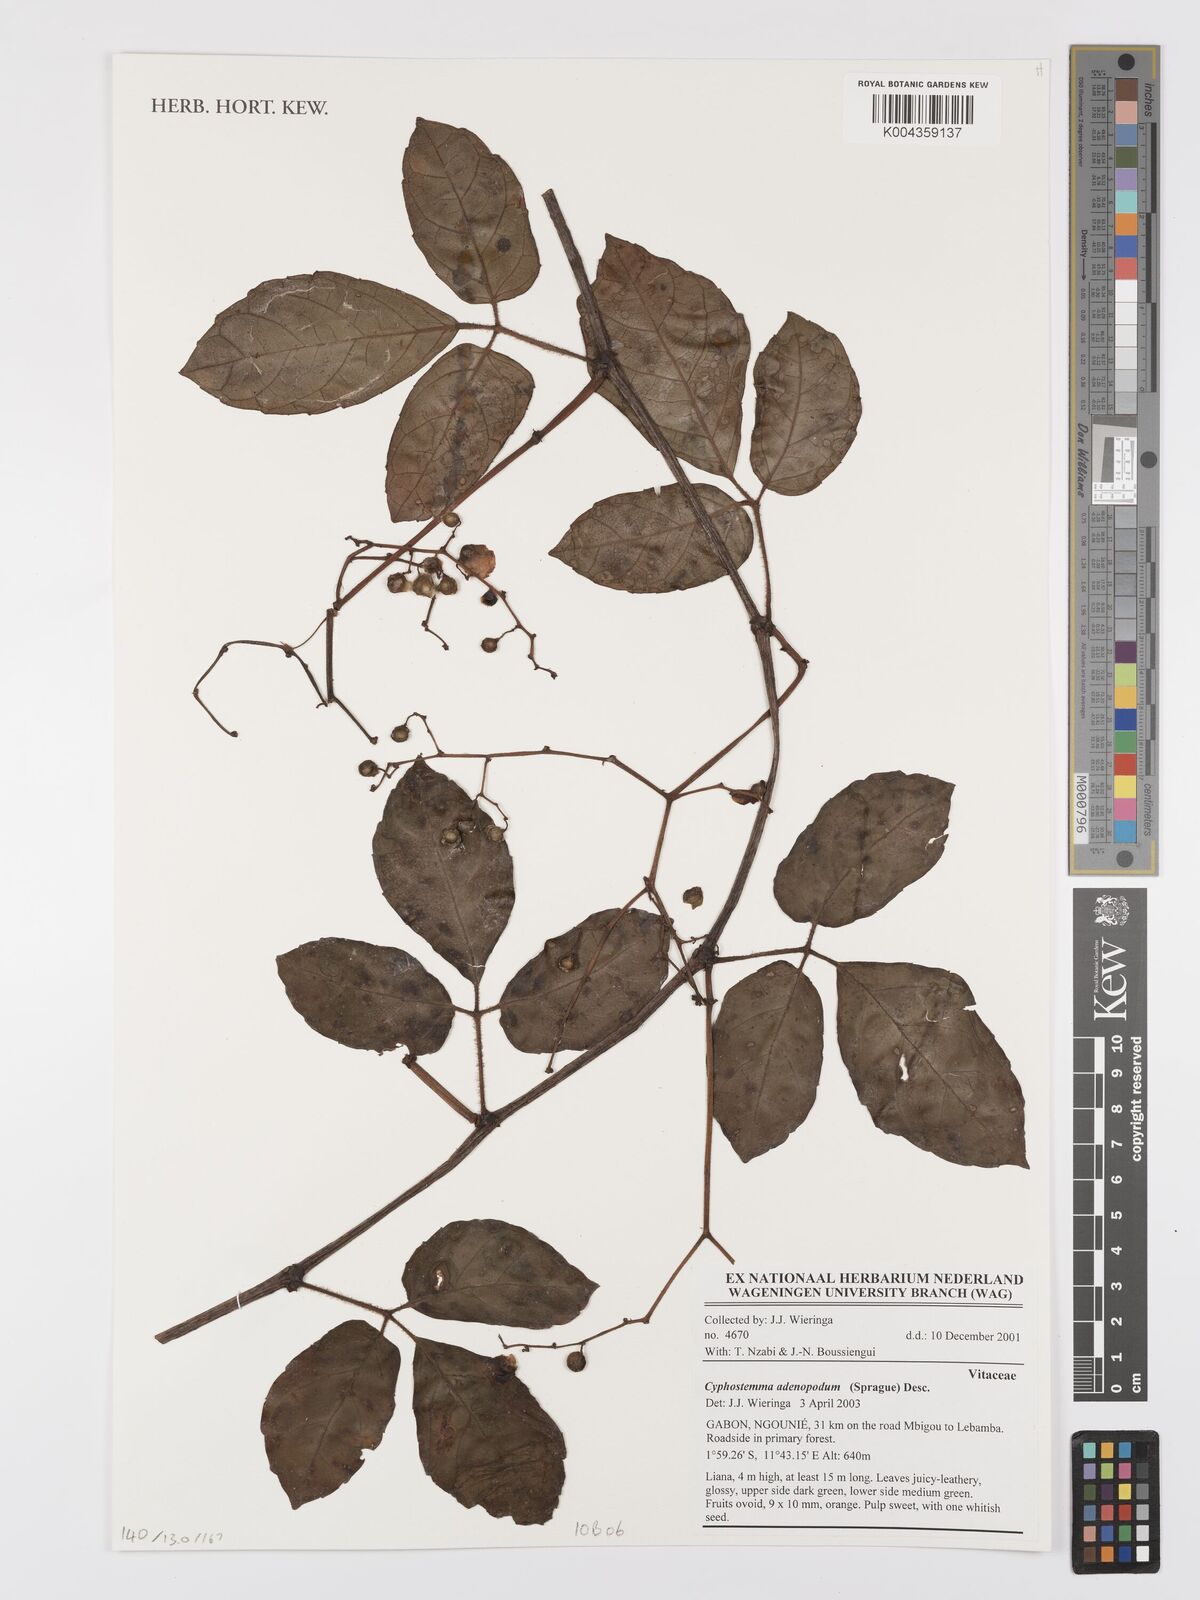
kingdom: Plantae
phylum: Tracheophyta
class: Magnoliopsida
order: Vitales
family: Vitaceae
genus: Cyphostemma
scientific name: Cyphostemma adenopodum
